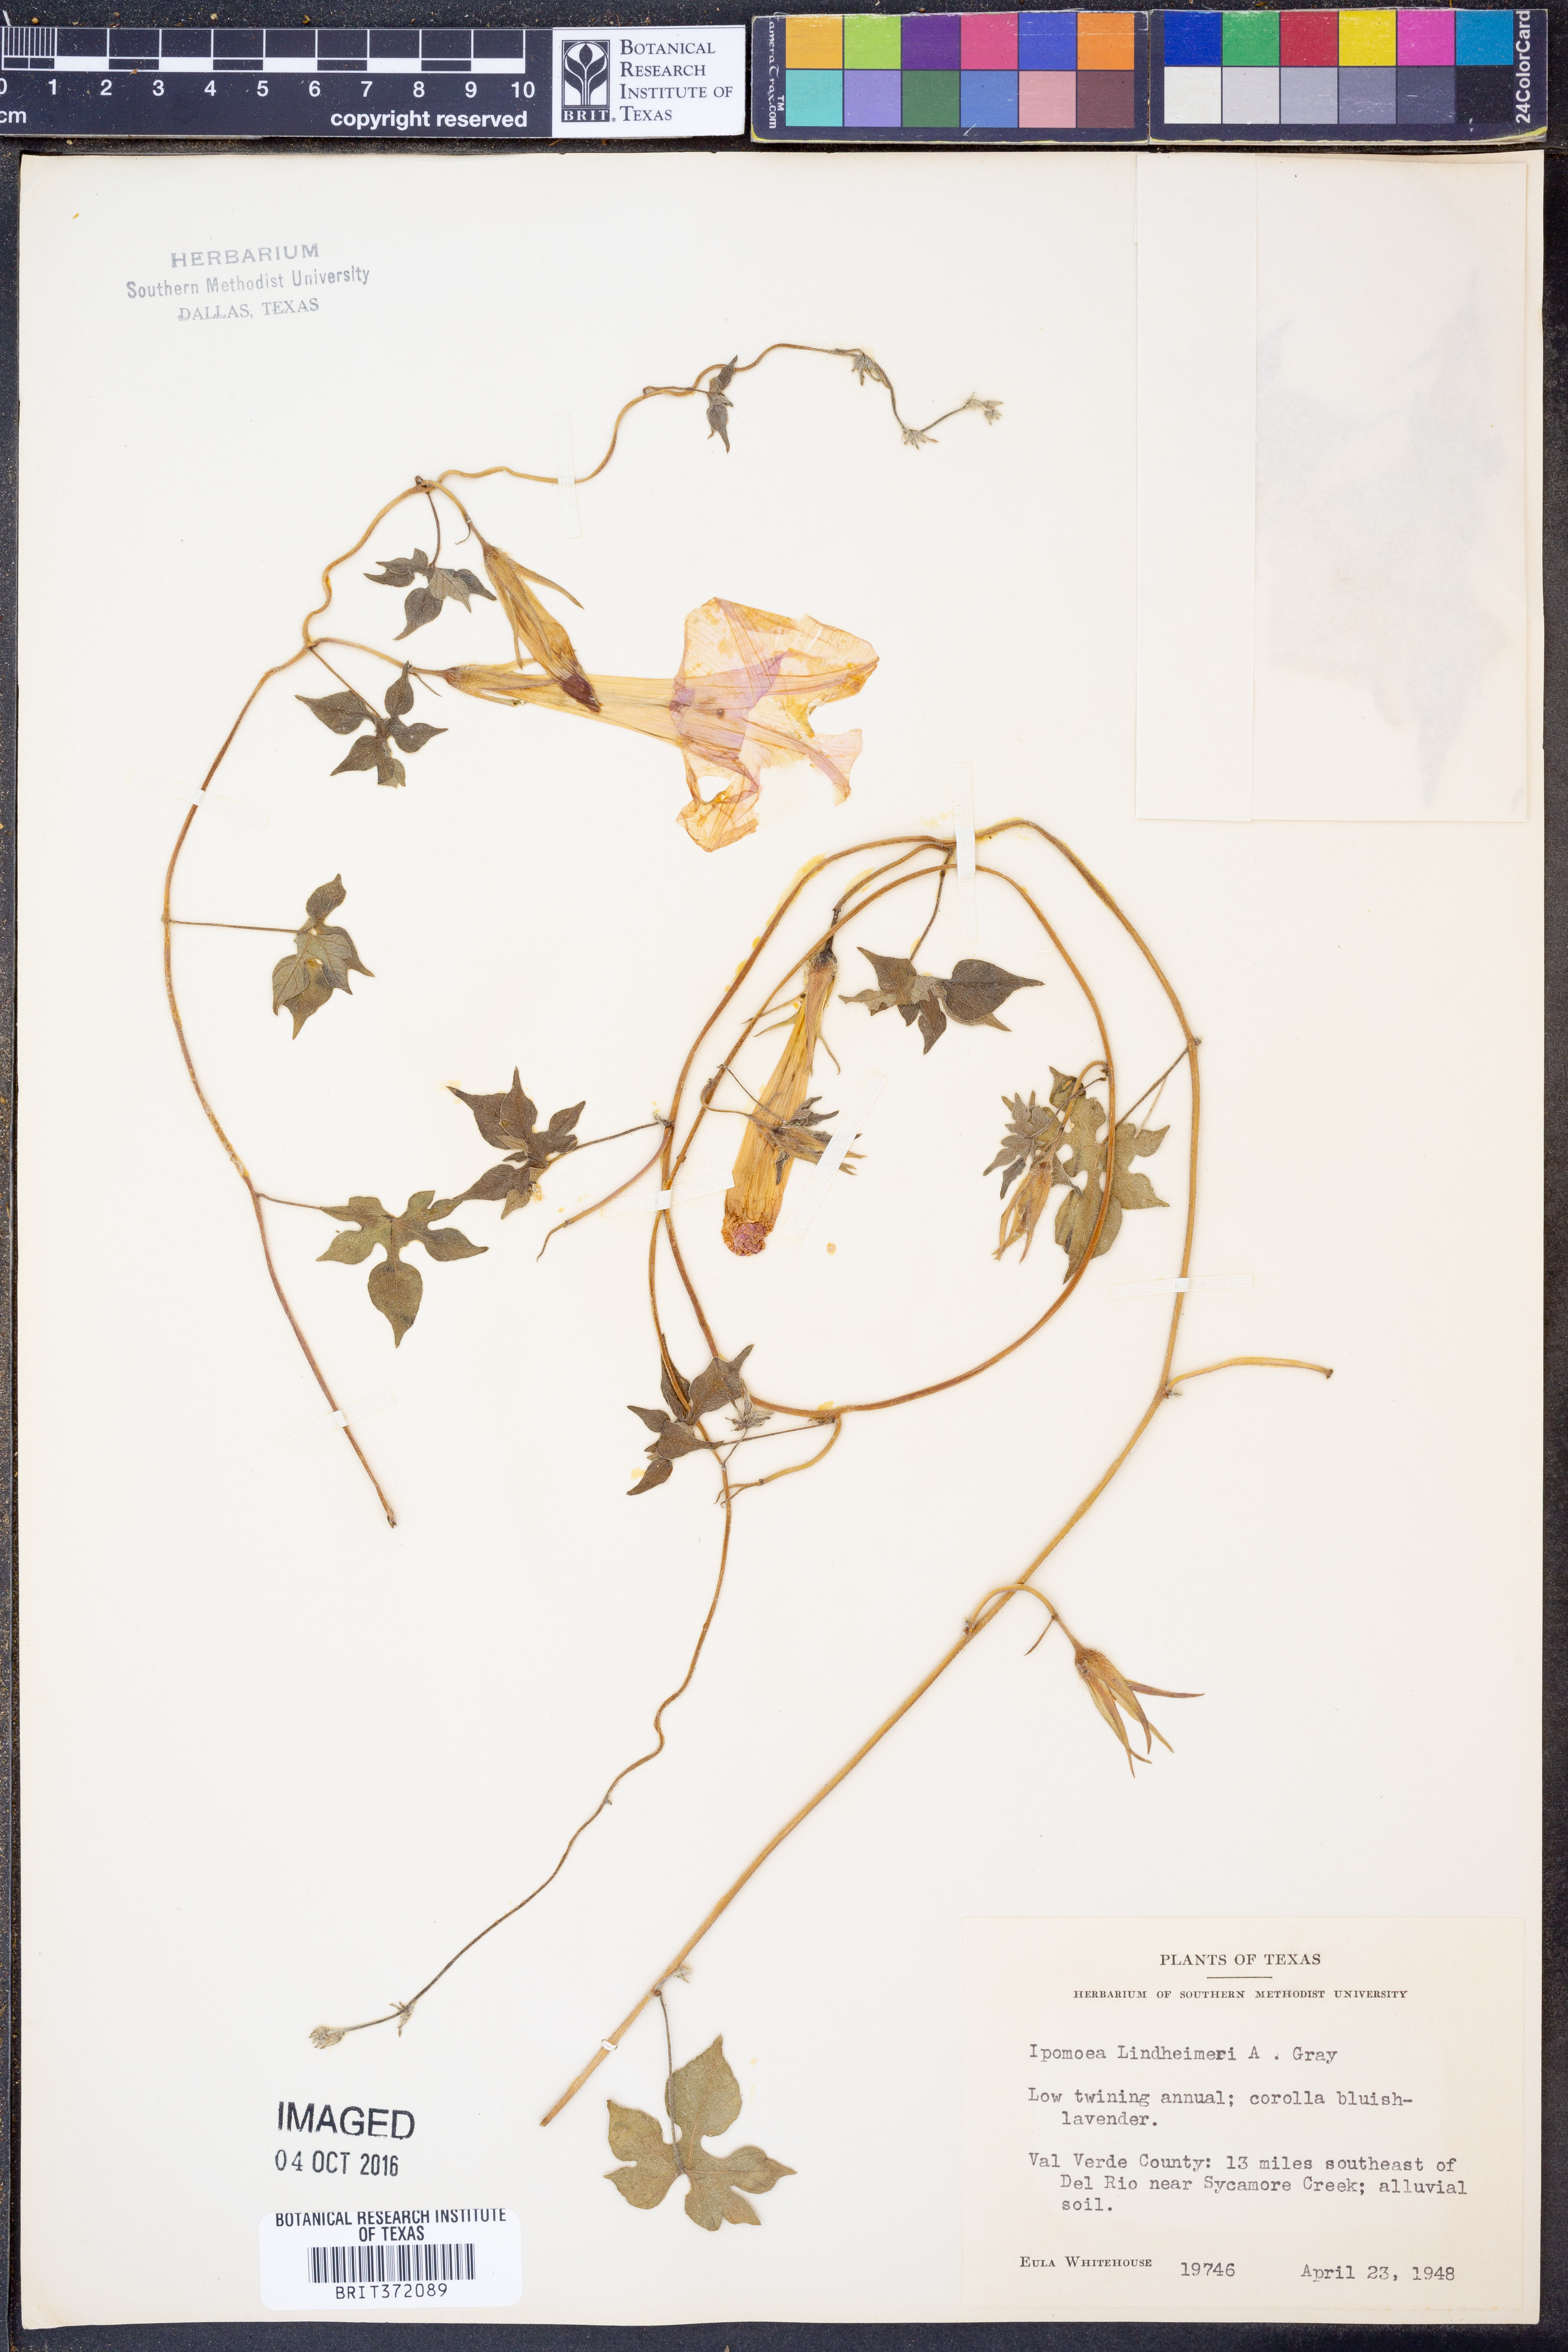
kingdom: Plantae
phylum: Tracheophyta
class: Magnoliopsida
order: Solanales
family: Convolvulaceae
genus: Ipomoea
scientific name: Ipomoea lindheimeri
